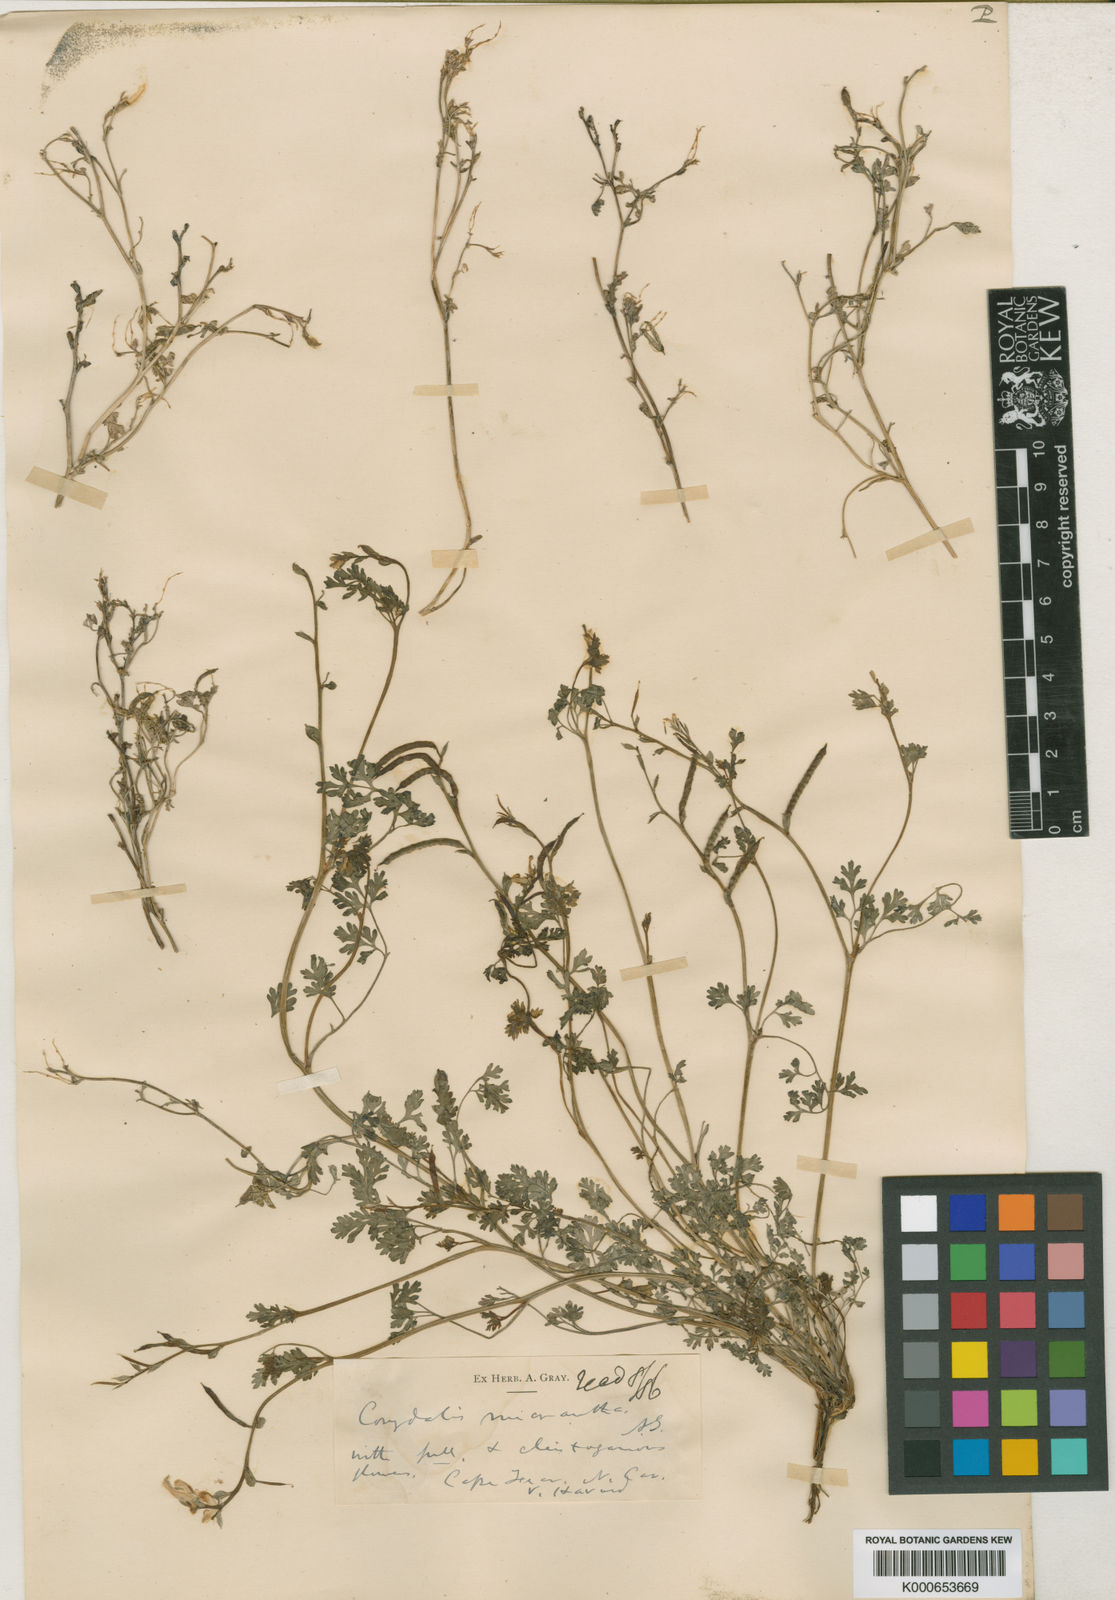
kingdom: Plantae
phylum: Tracheophyta
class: Magnoliopsida
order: Ranunculales
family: Papaveraceae
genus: Corydalis
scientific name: Corydalis
